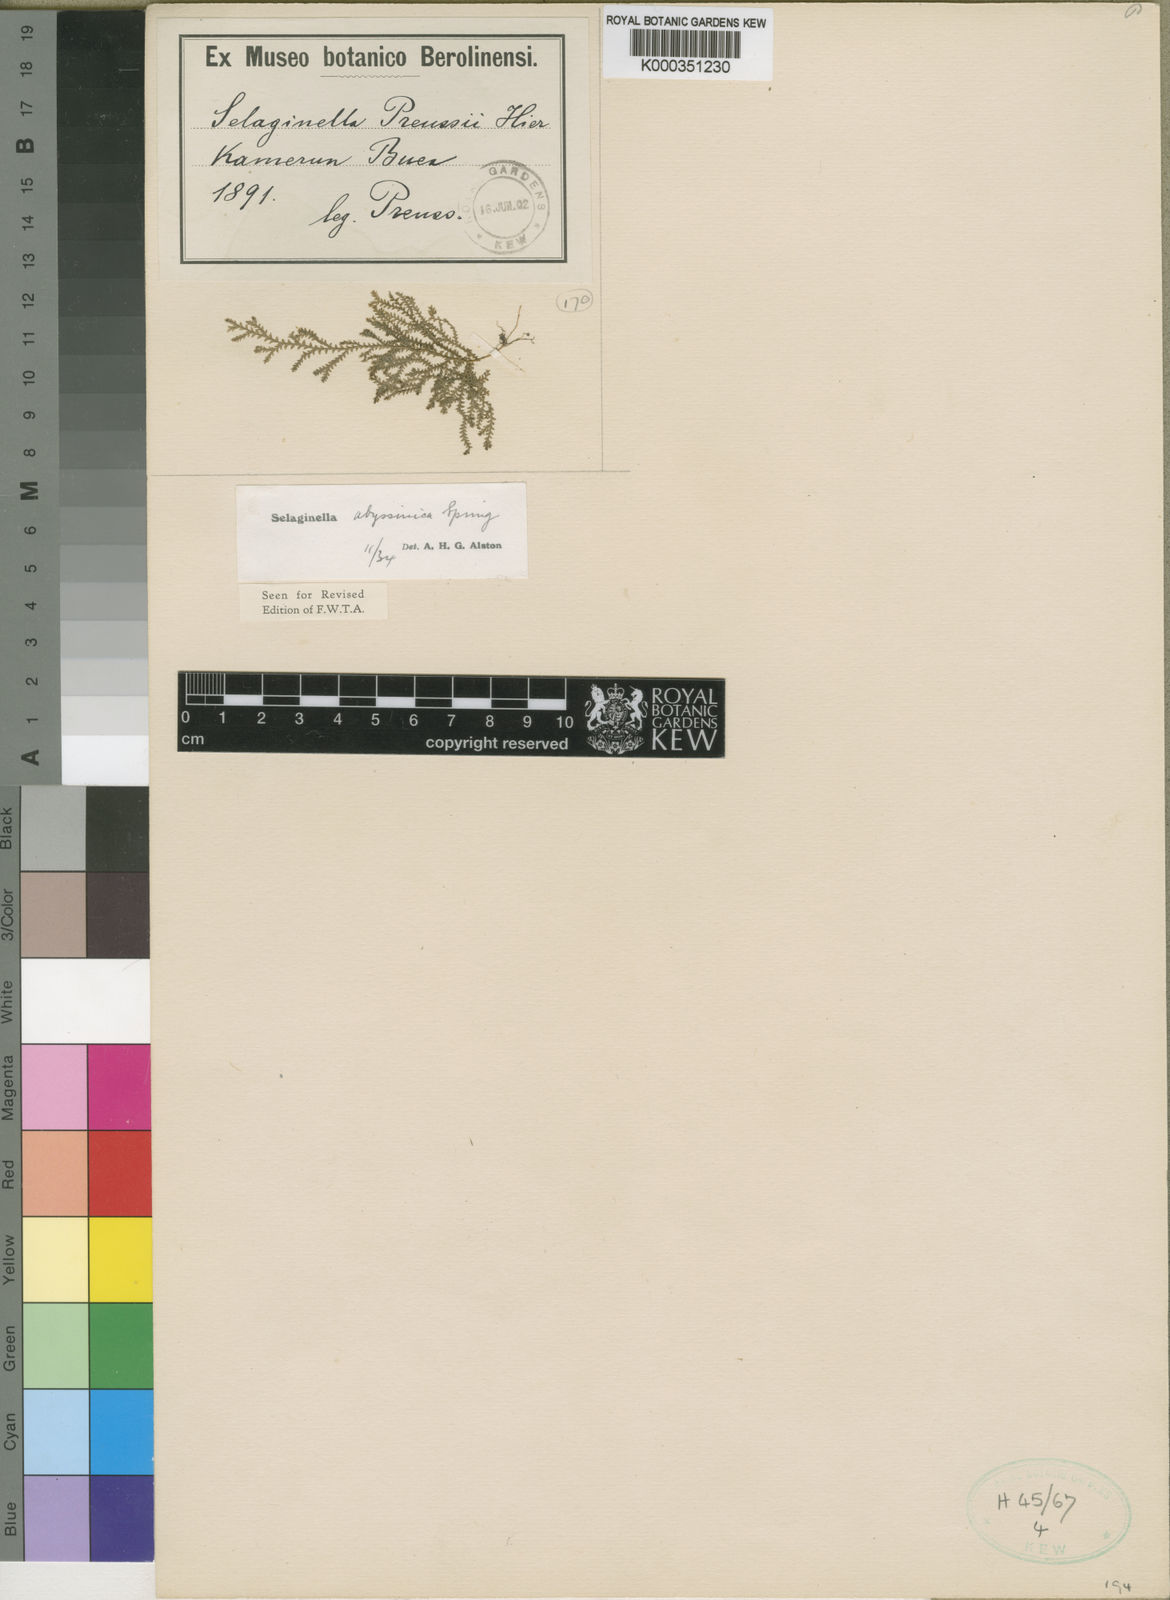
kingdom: Plantae
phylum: Tracheophyta
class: Lycopodiopsida
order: Selaginellales
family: Selaginellaceae
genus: Selaginella
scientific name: Selaginella
